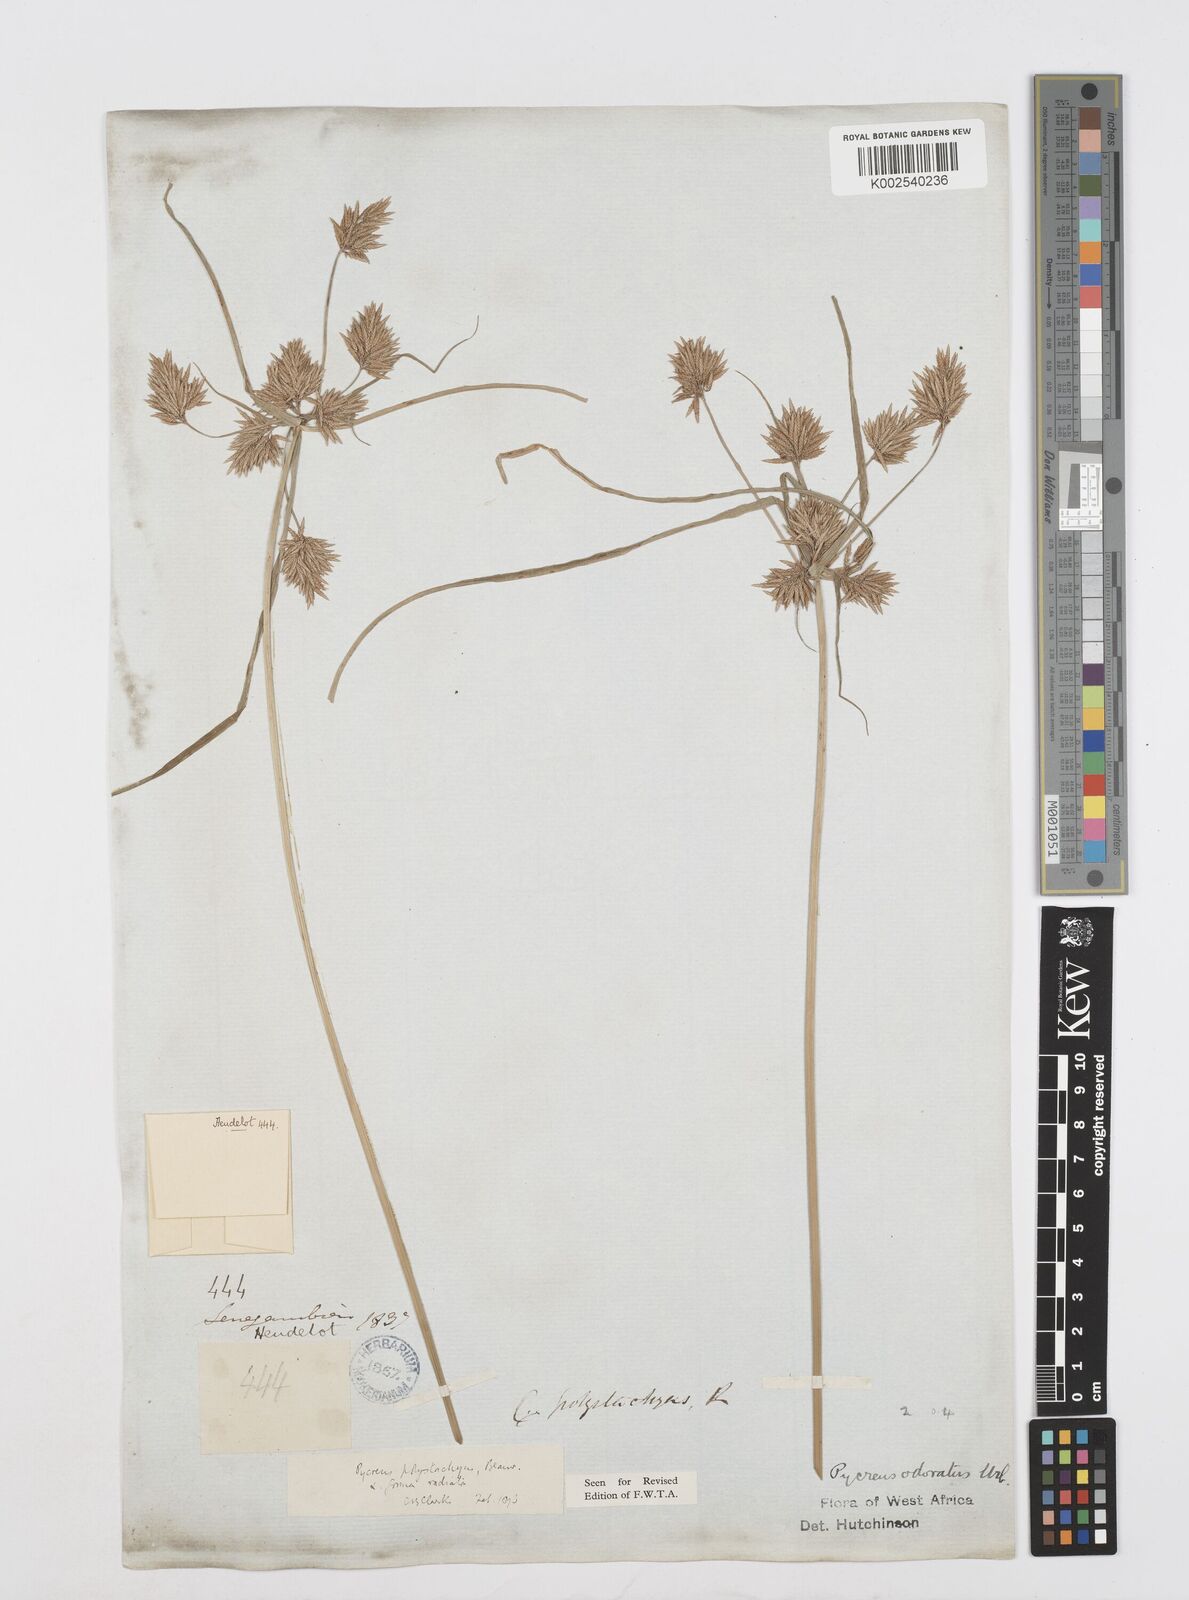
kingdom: Plantae
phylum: Tracheophyta
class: Liliopsida
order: Poales
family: Cyperaceae
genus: Cyperus
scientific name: Cyperus polystachyos
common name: Bunchy flat sedge
